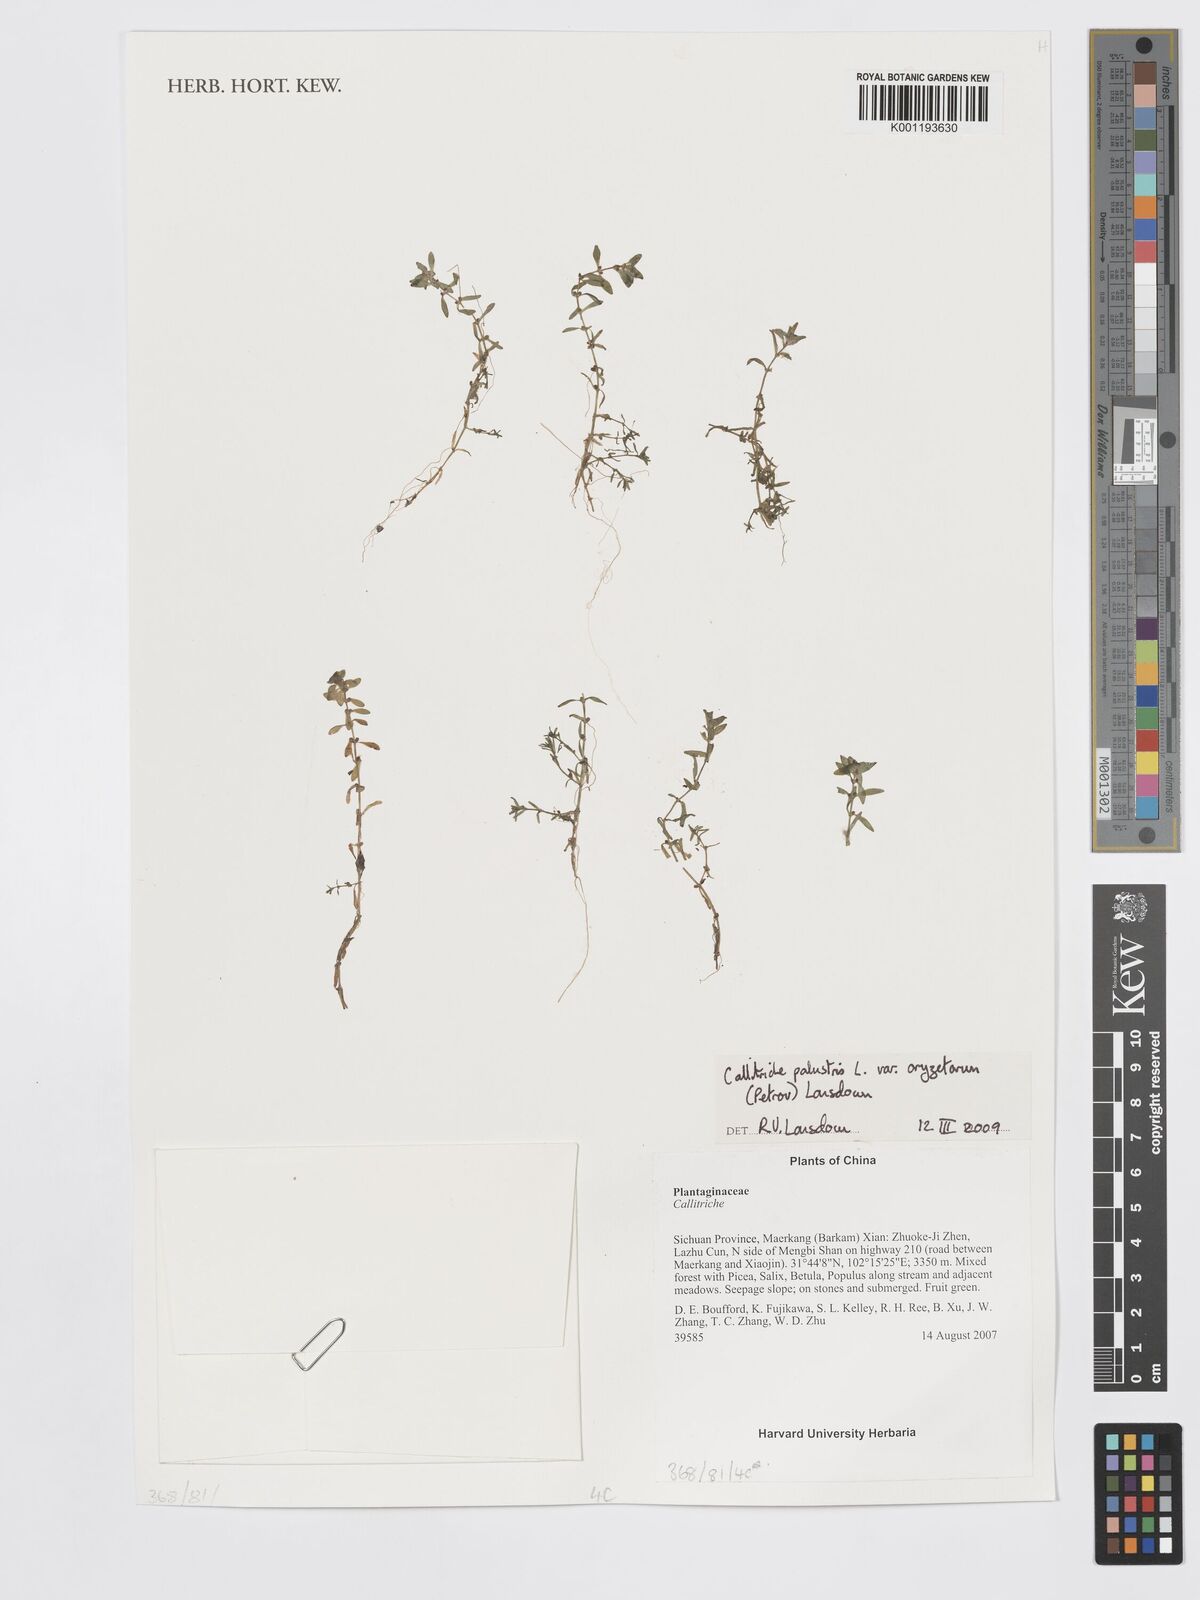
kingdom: Plantae
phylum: Tracheophyta
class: Magnoliopsida
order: Lamiales
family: Plantaginaceae
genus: Callitriche
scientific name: Callitriche palustris
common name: Spring water-starwort
